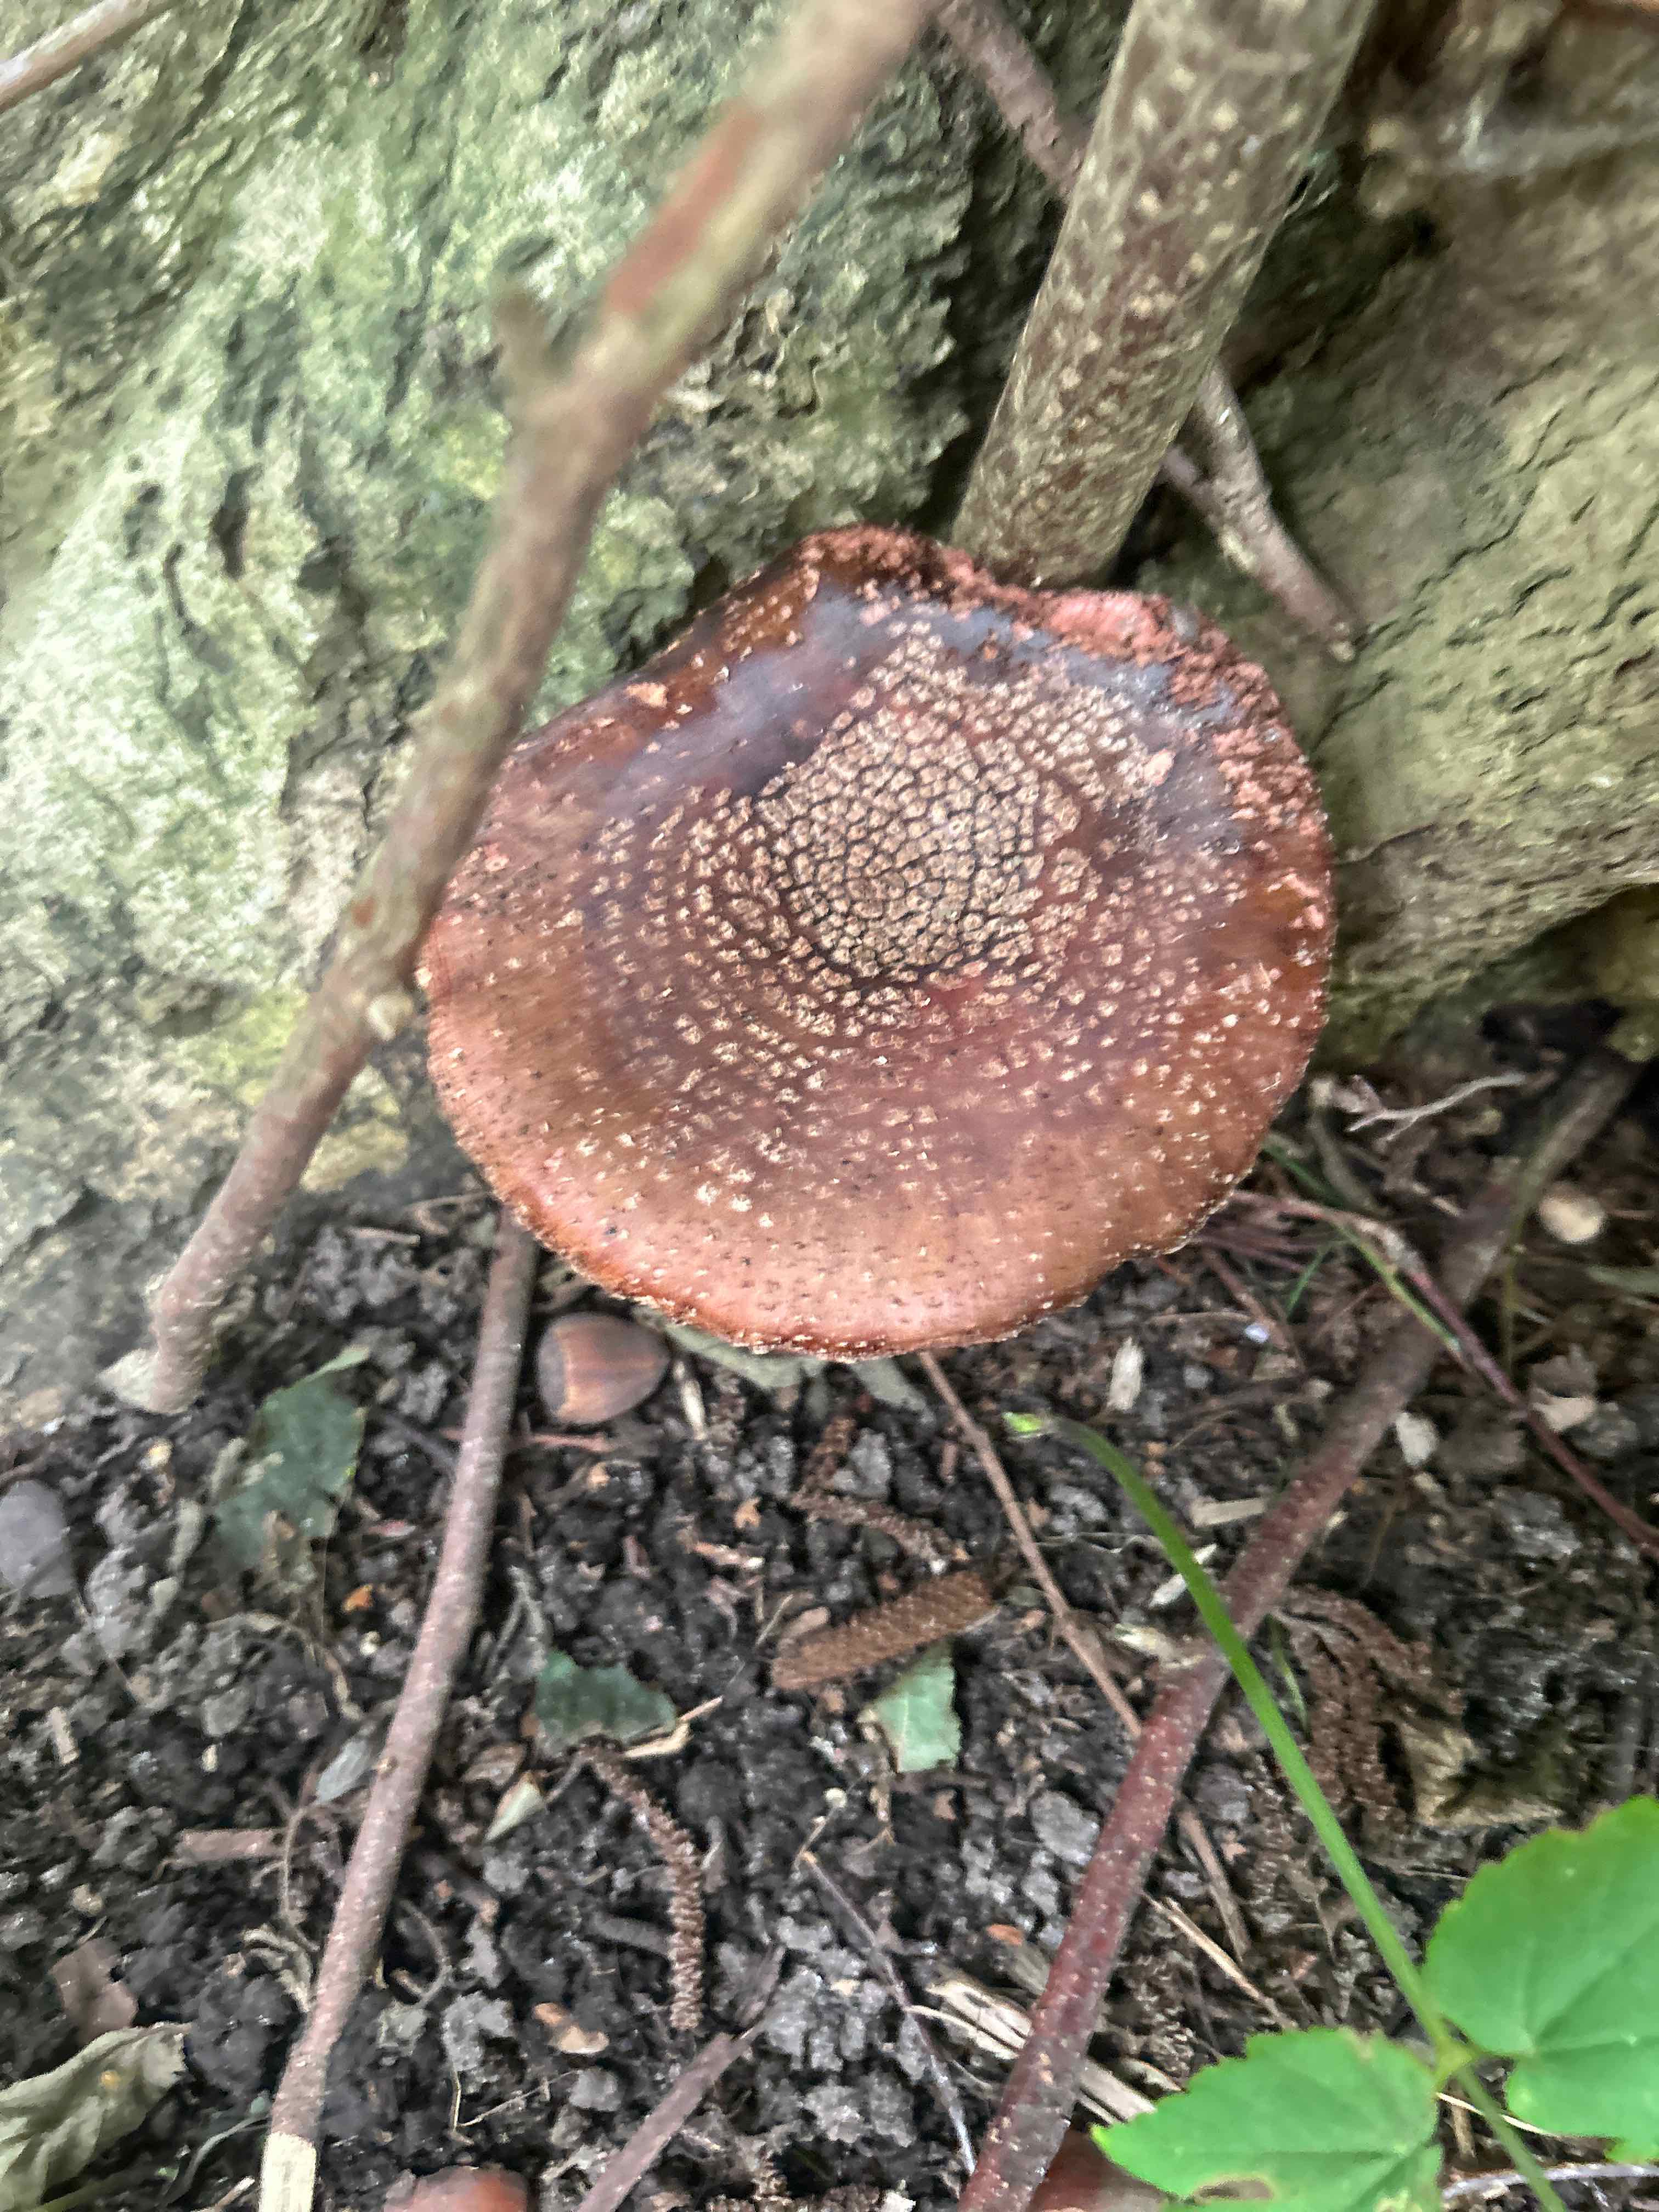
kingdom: Fungi
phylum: Basidiomycota
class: Agaricomycetes
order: Agaricales
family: Amanitaceae
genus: Amanita
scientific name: Amanita rubescens
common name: rødmende fluesvamp
